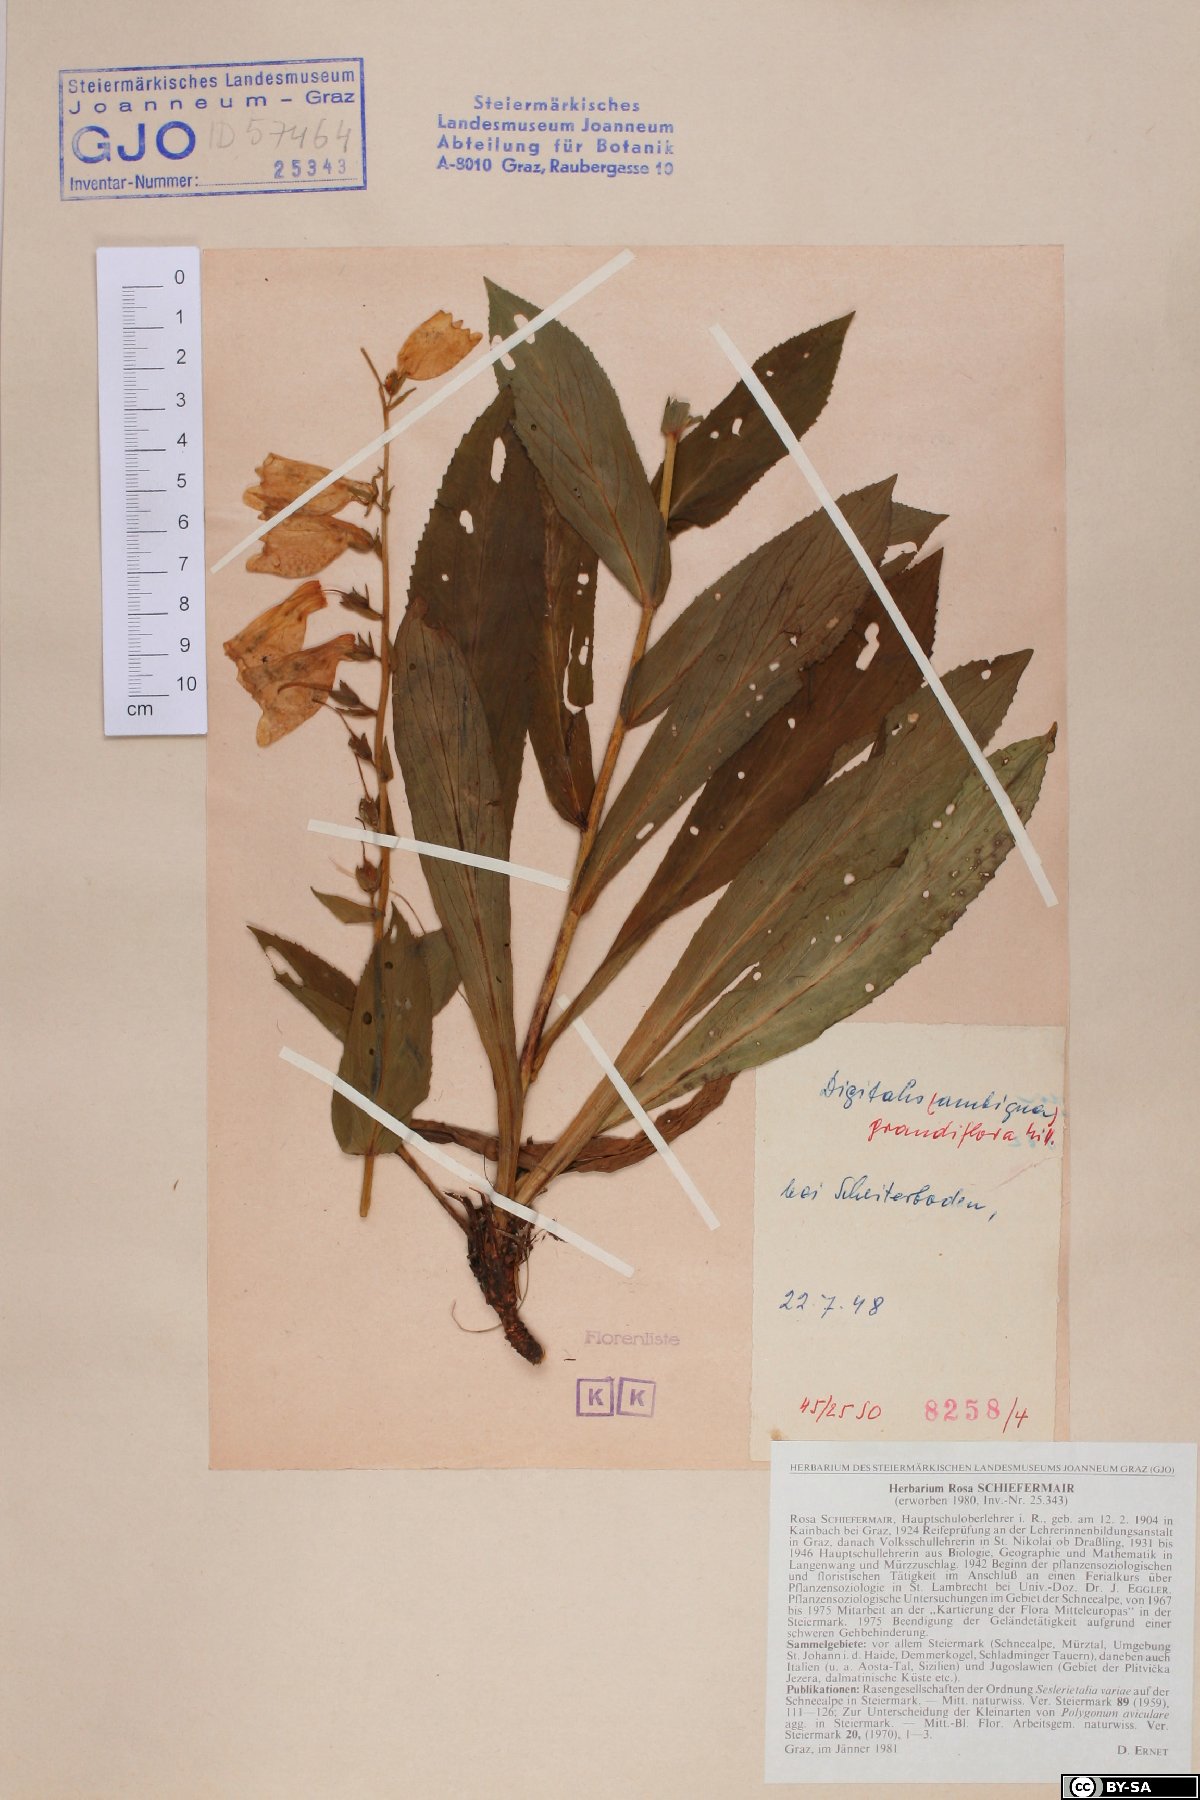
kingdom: Plantae
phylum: Tracheophyta
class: Magnoliopsida
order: Lamiales
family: Plantaginaceae
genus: Digitalis
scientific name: Digitalis grandiflora
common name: Yellow foxglove
